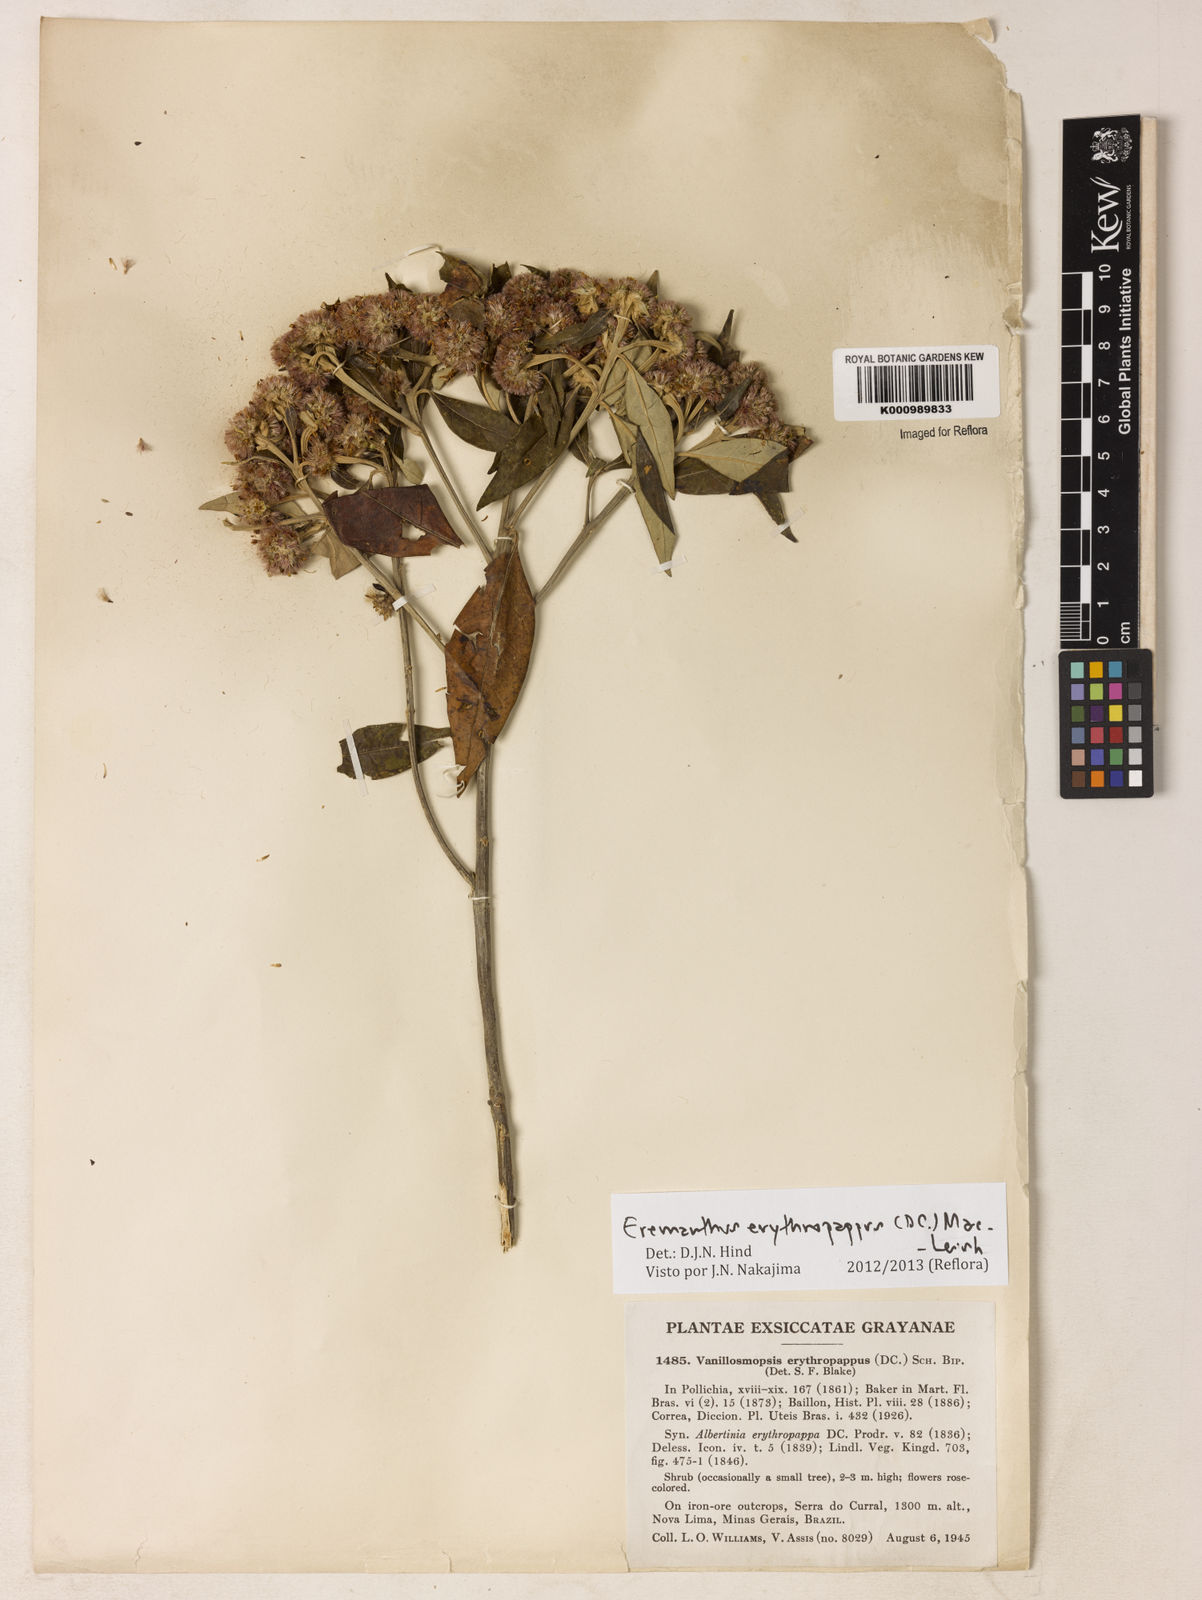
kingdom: Plantae
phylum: Tracheophyta
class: Magnoliopsida
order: Asterales
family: Asteraceae
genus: Eremanthus
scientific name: Eremanthus erythropappus
